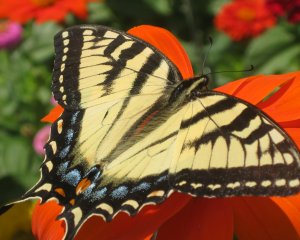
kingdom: Animalia
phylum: Arthropoda
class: Insecta
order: Lepidoptera
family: Papilionidae
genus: Pterourus
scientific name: Pterourus glaucus
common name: Eastern Tiger Swallowtail
